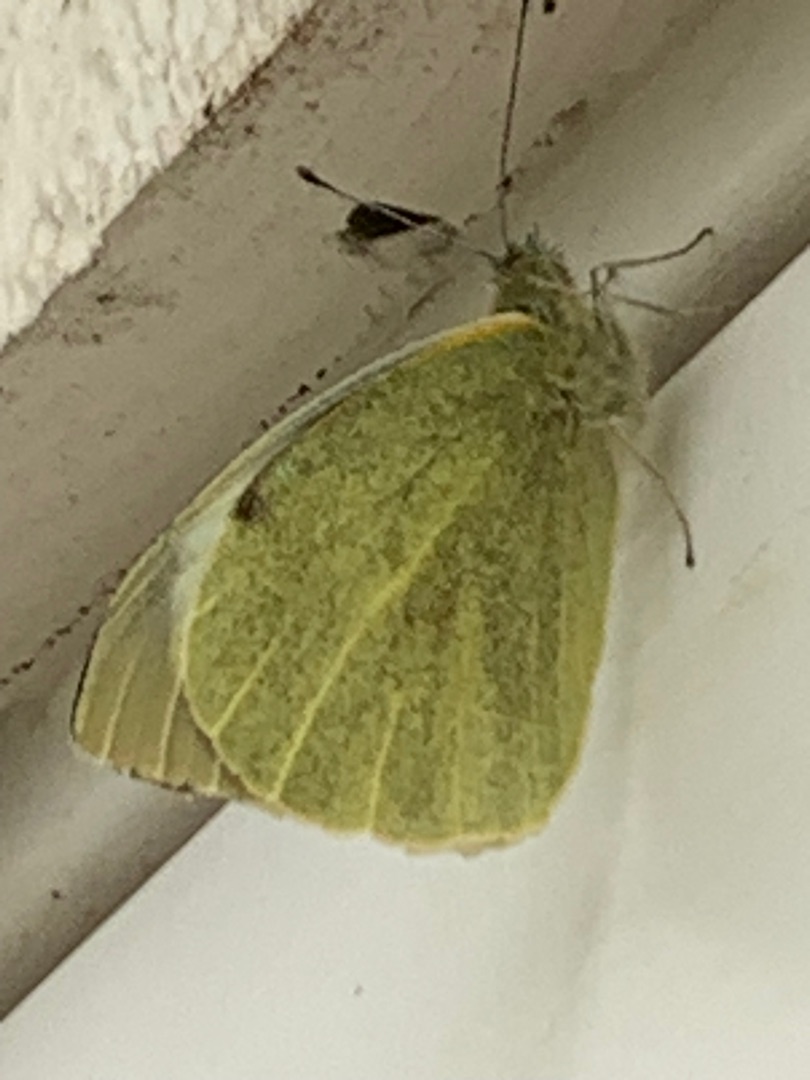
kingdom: Animalia
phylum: Arthropoda
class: Insecta
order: Lepidoptera
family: Pieridae
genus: Pieris
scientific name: Pieris brassicae
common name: Stor kålsommerfugl
